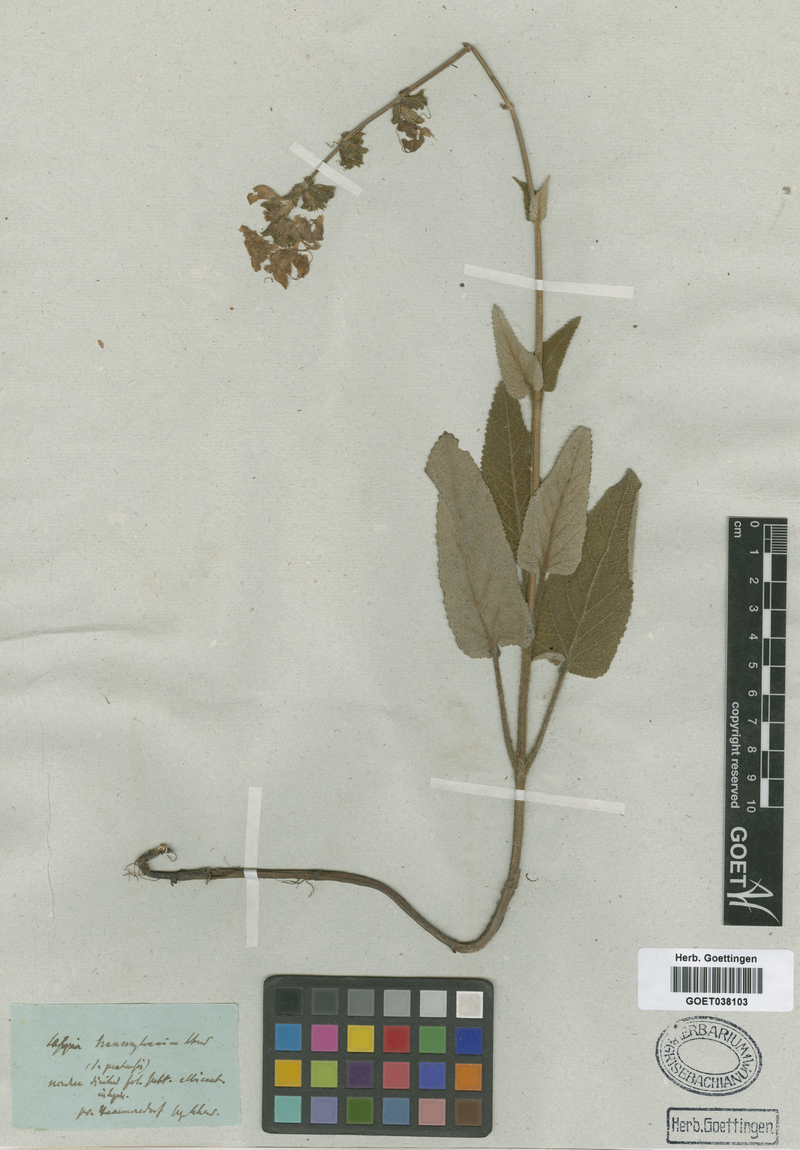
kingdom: Plantae
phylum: Tracheophyta
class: Magnoliopsida
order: Lamiales
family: Lamiaceae
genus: Salvia
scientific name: Salvia transsylvanica
